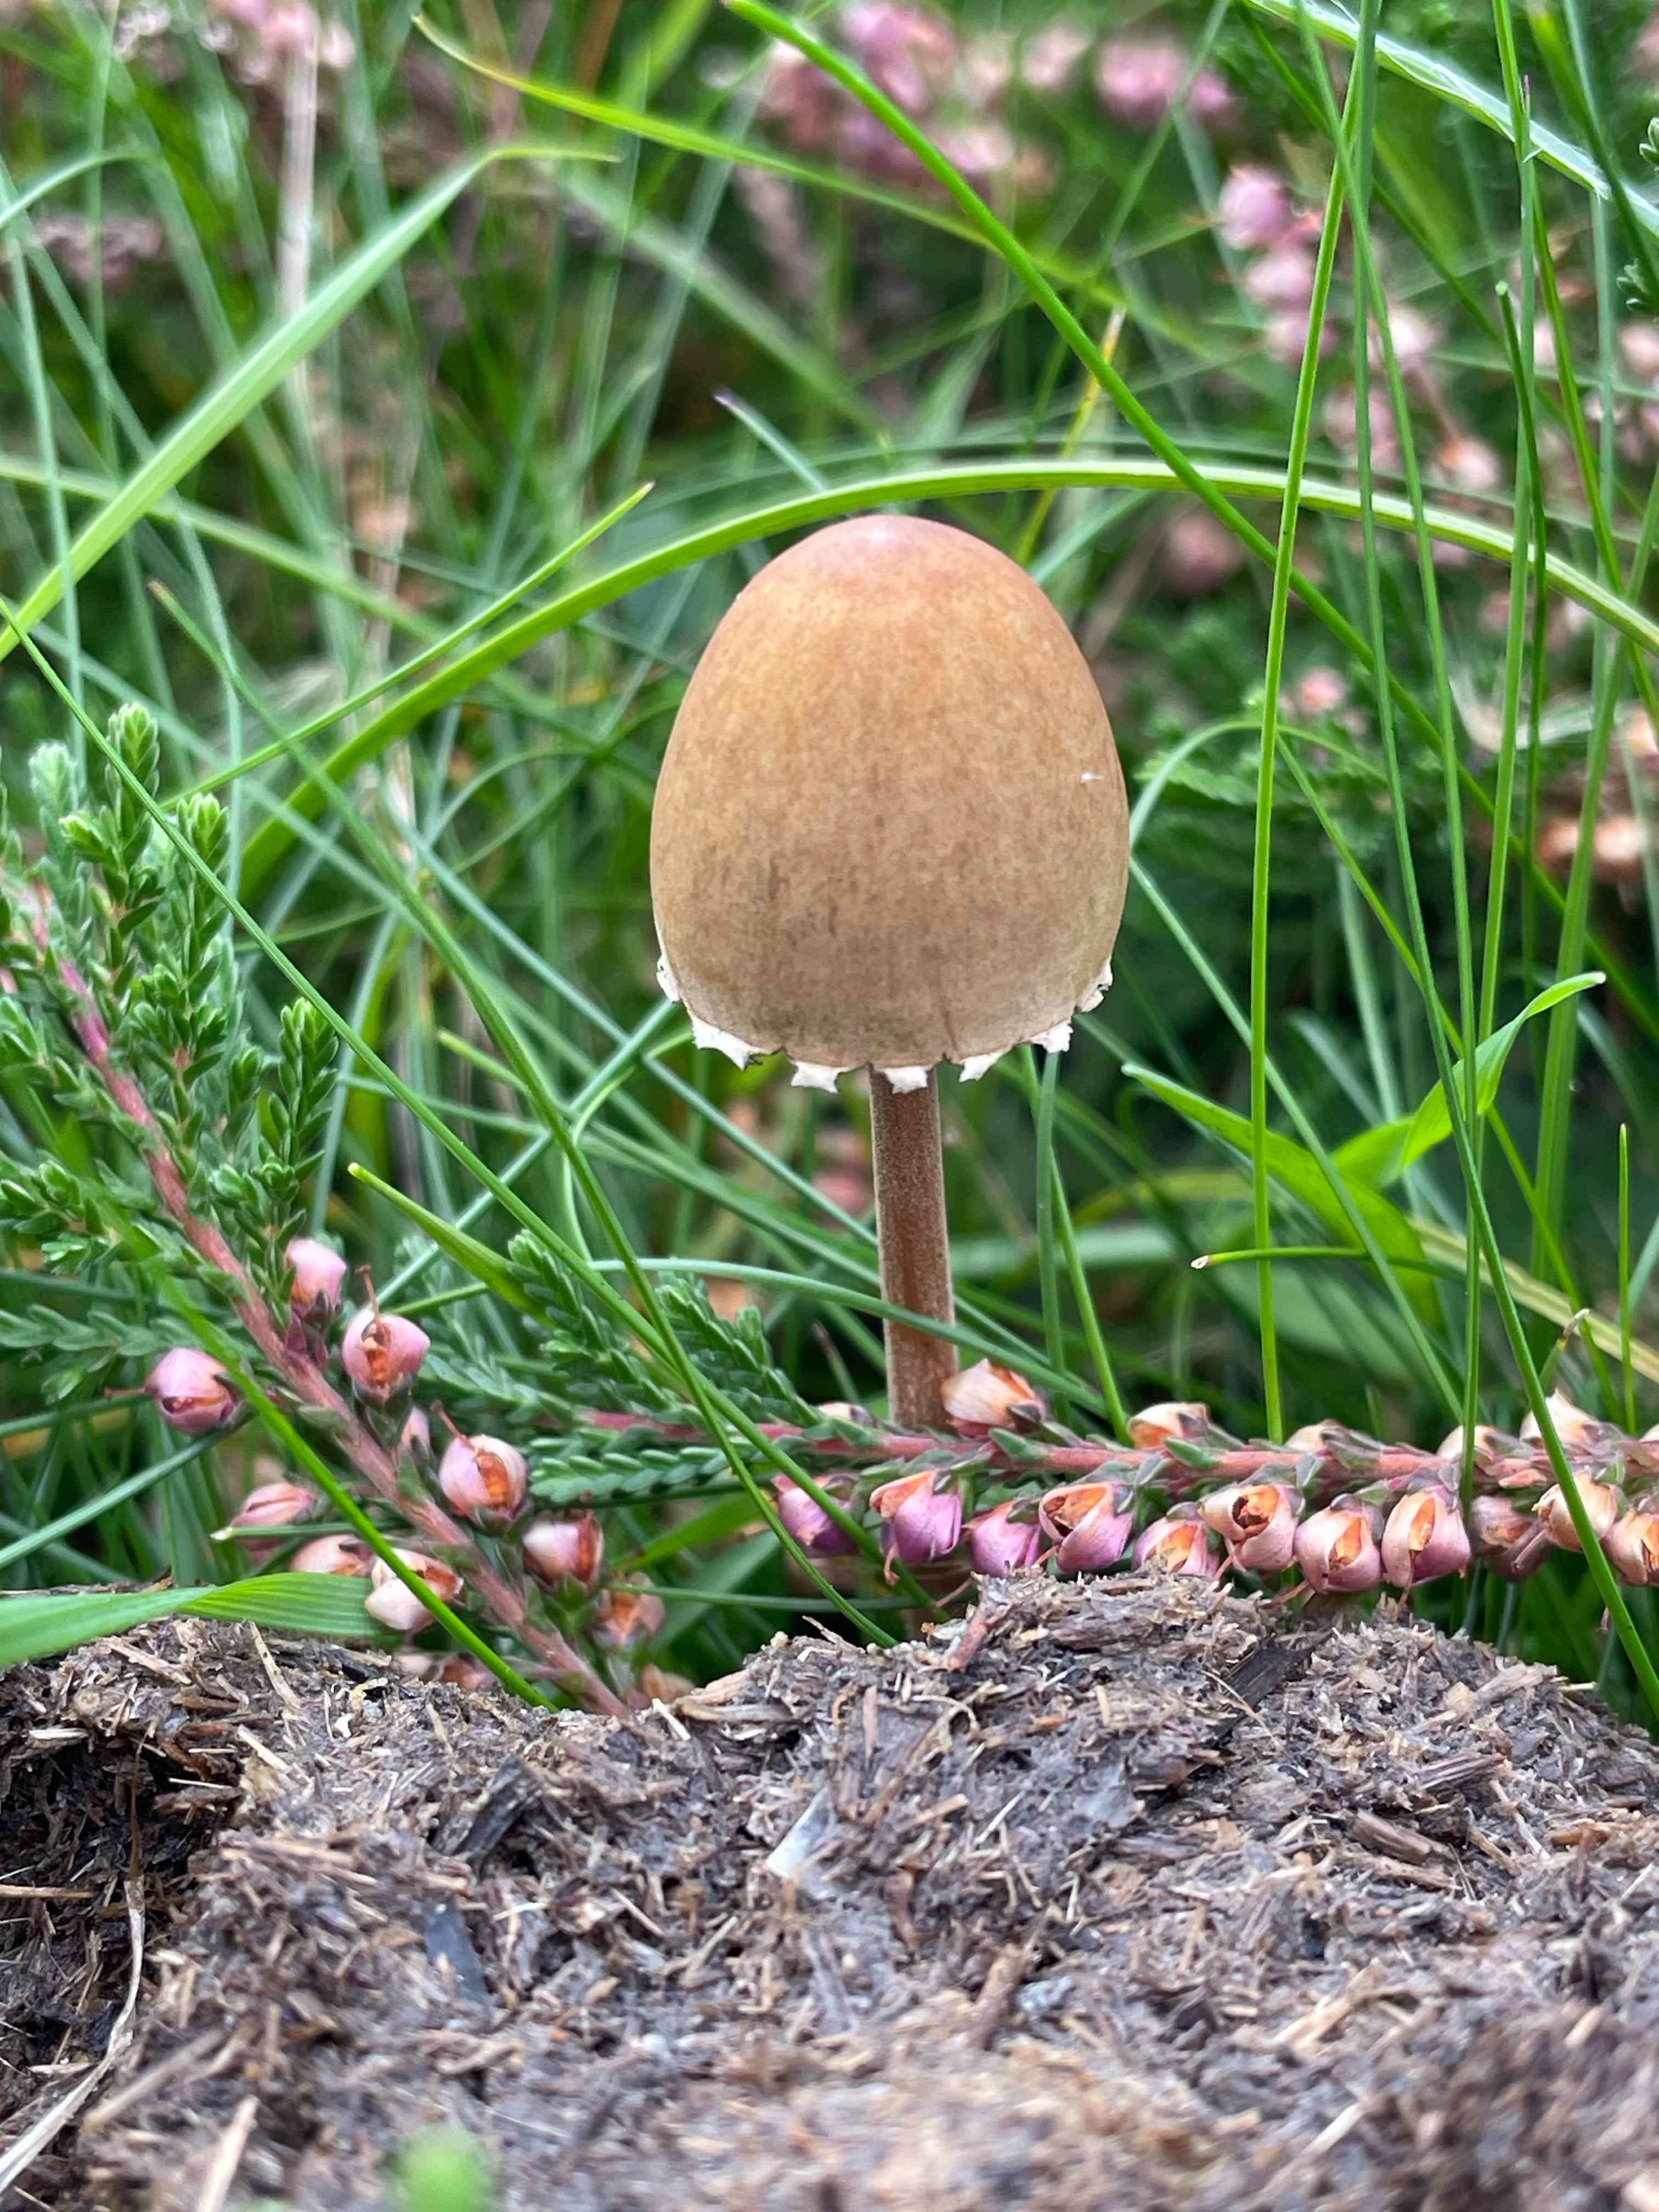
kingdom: Fungi
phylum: Basidiomycota
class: Agaricomycetes
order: Agaricales
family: Bolbitiaceae
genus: Panaeolus
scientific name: Panaeolus papilionaceus
